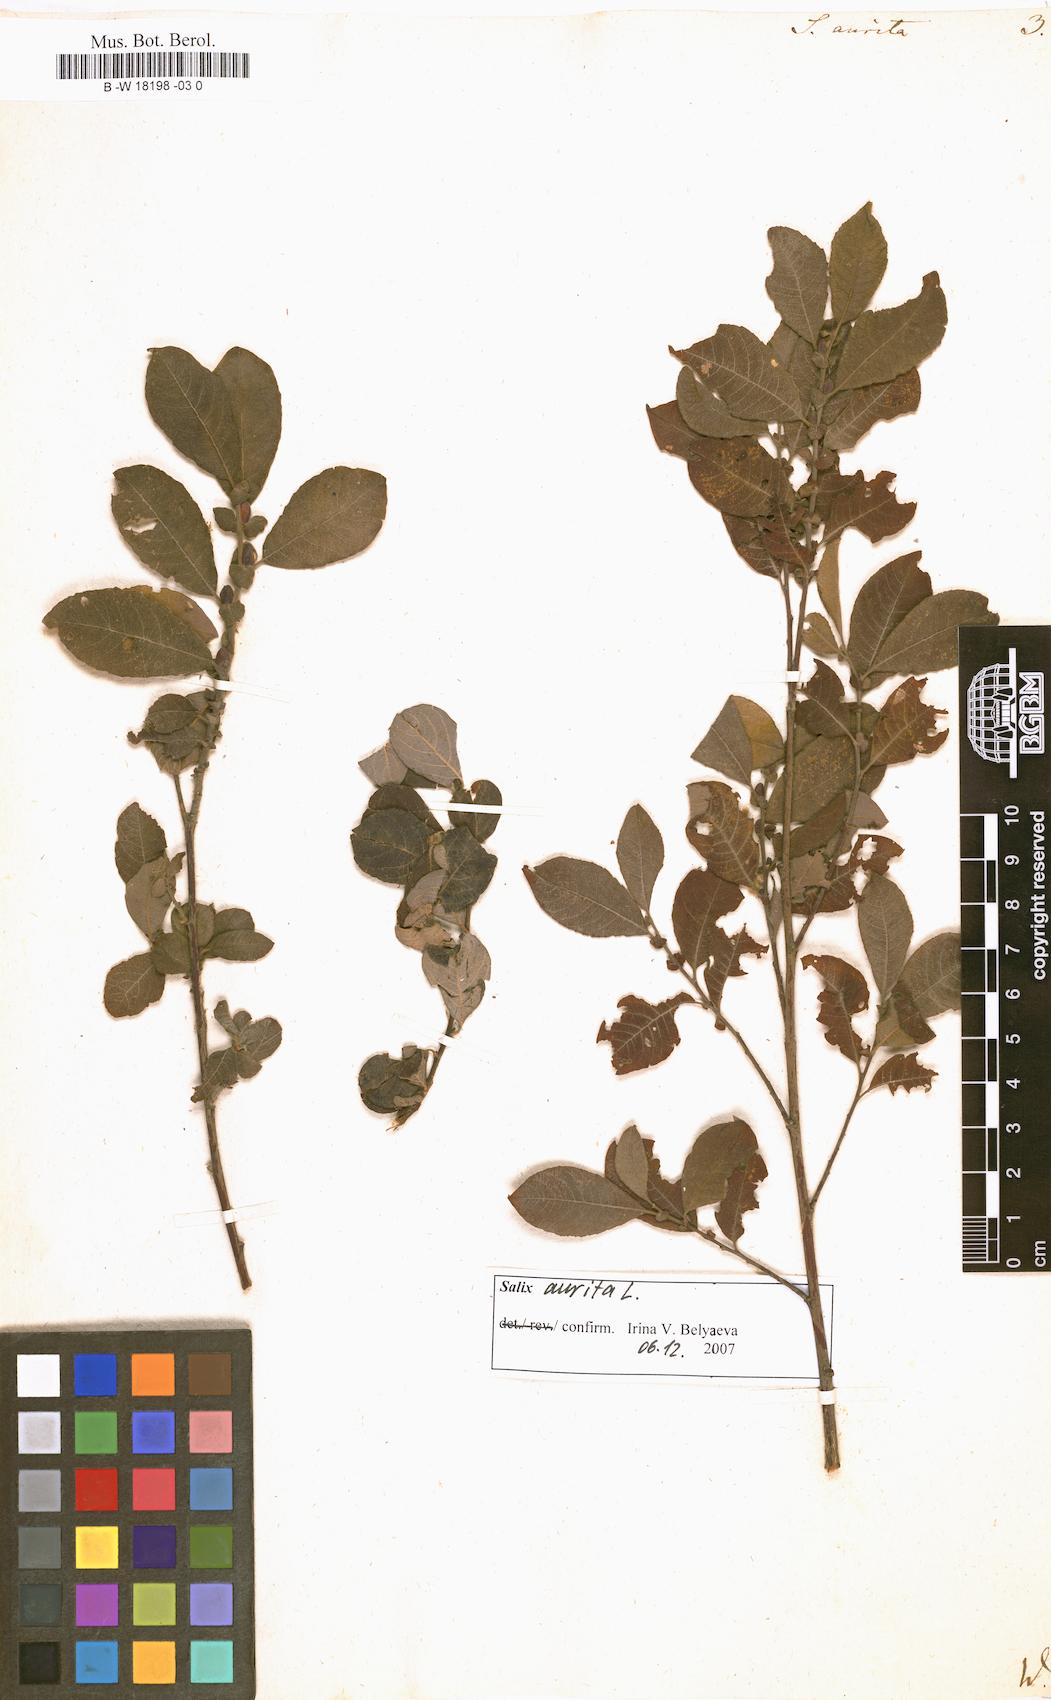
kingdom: Plantae
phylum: Tracheophyta
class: Magnoliopsida
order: Malpighiales
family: Salicaceae
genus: Salix
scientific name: Salix aurita
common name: Eared willow
